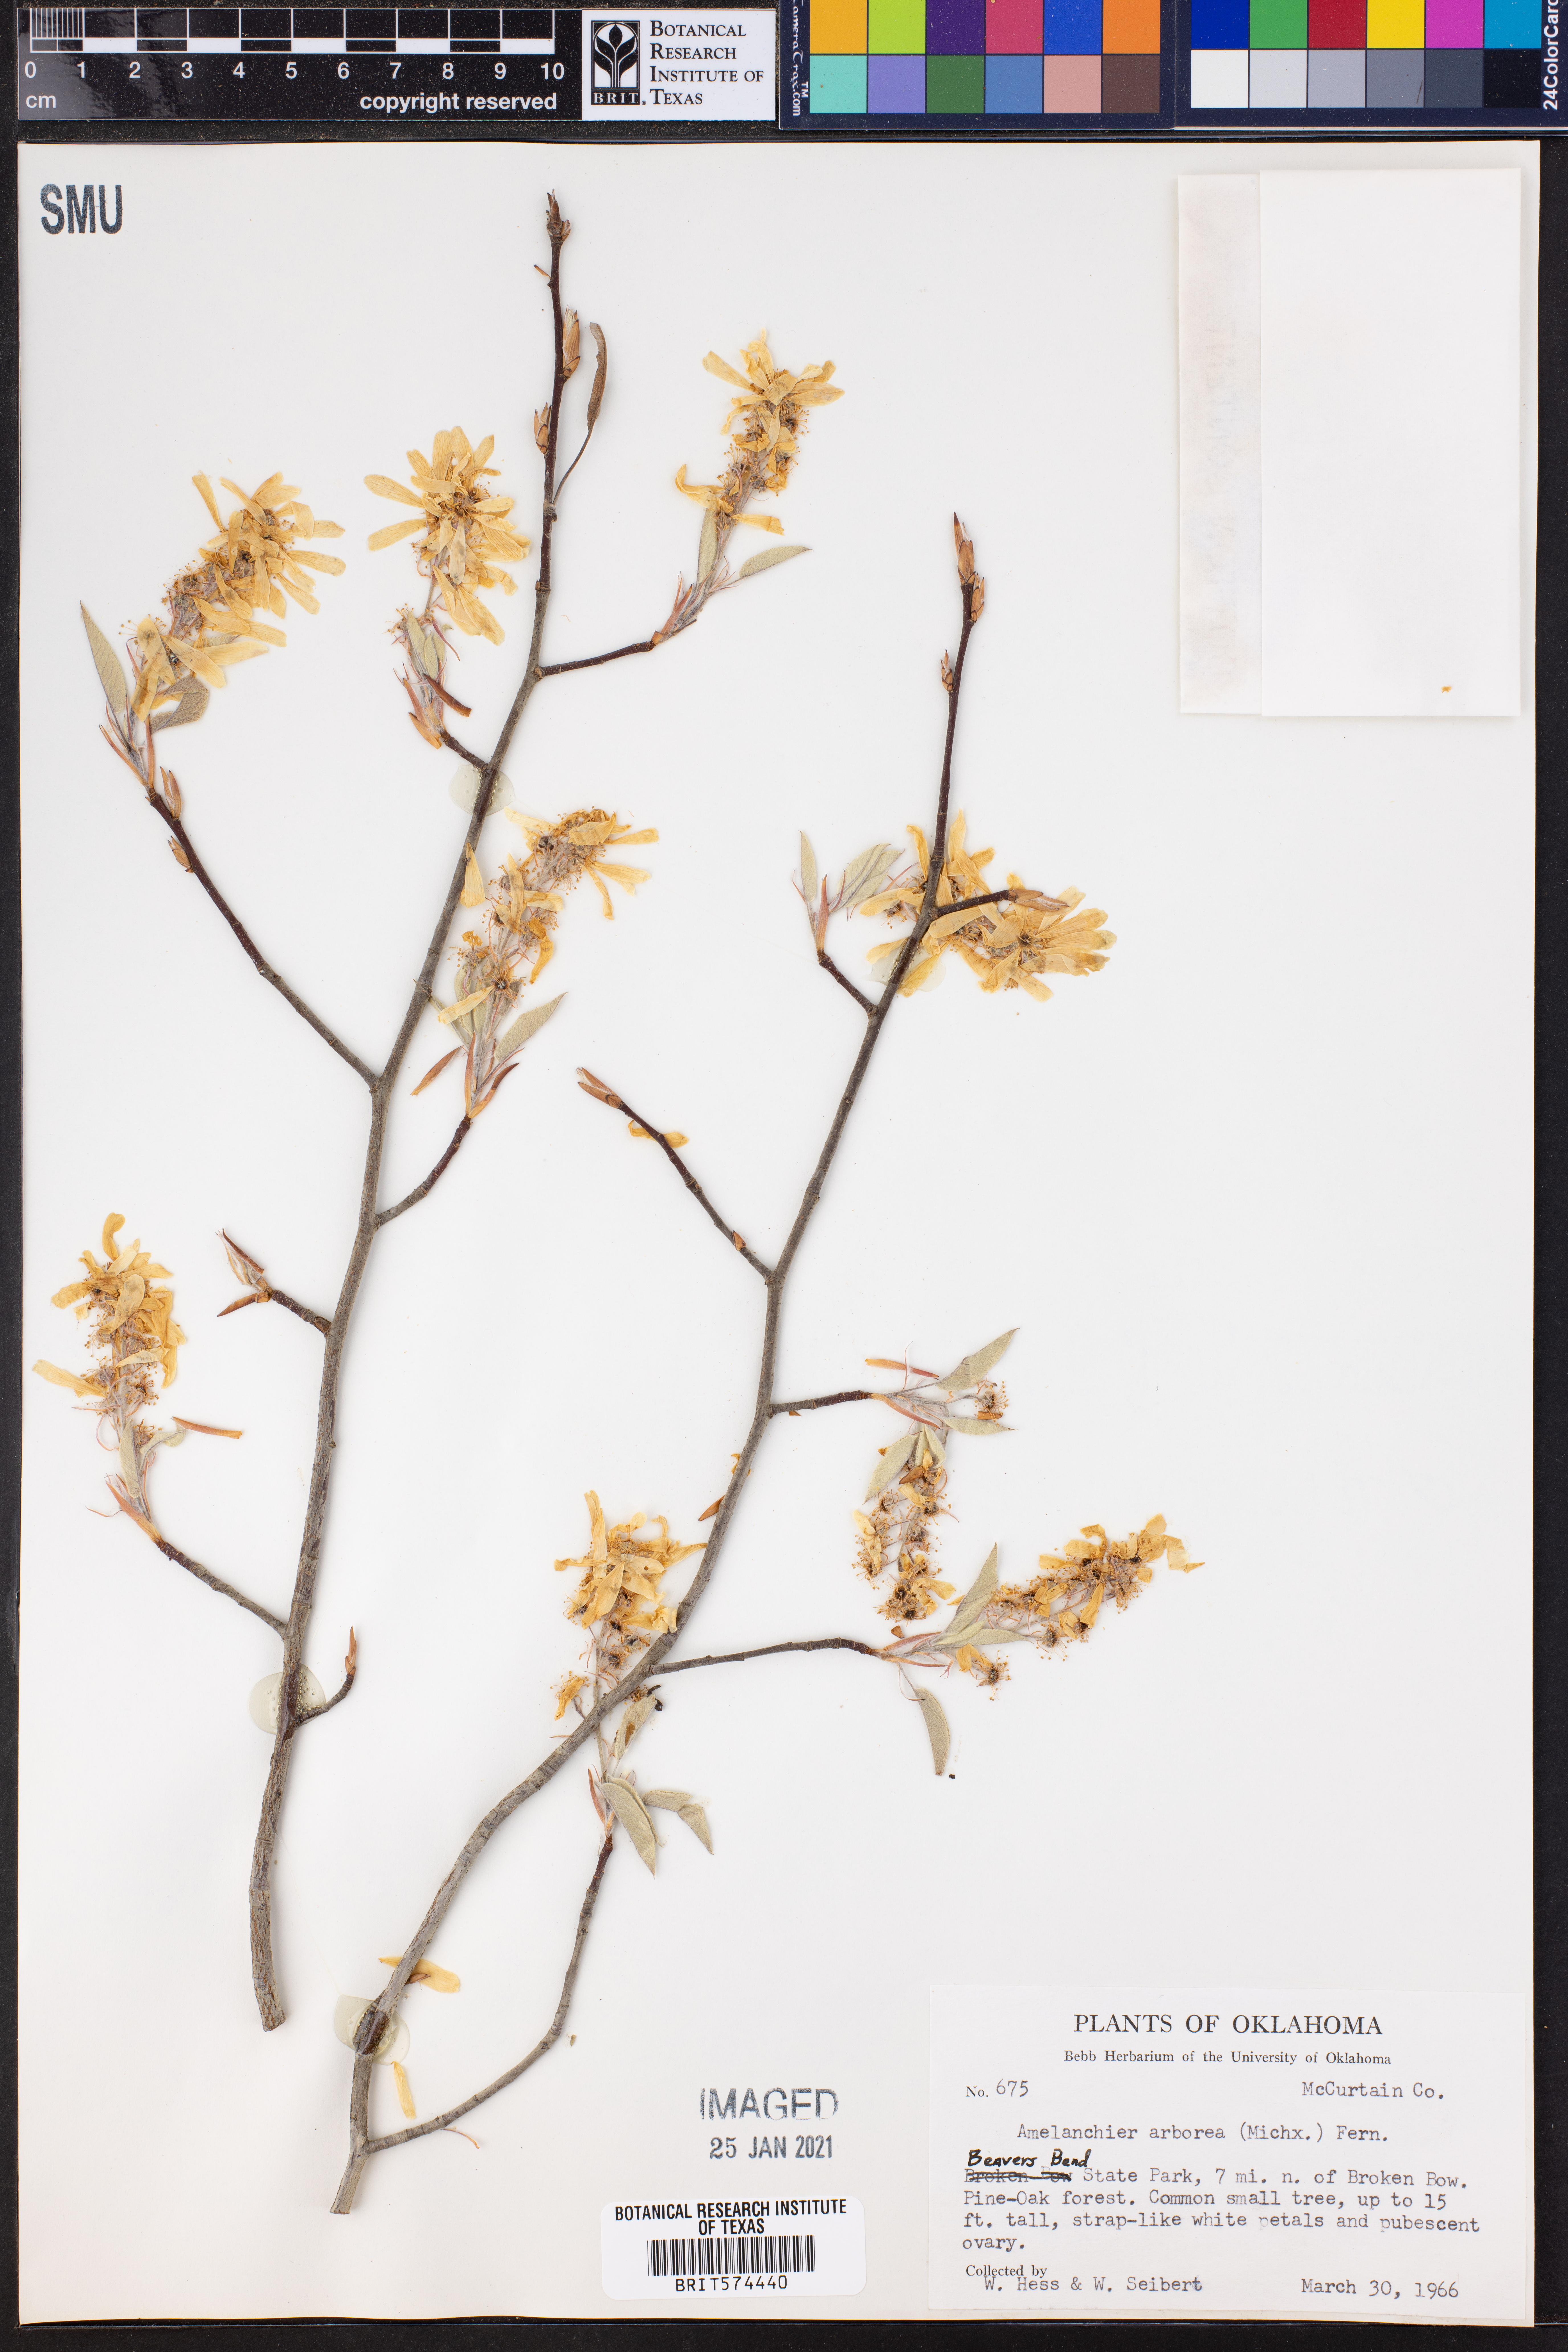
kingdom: Plantae
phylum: Tracheophyta
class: Magnoliopsida
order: Rosales
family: Rosaceae
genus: Amelanchier
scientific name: Amelanchier arborea
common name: Downy serviceberry
